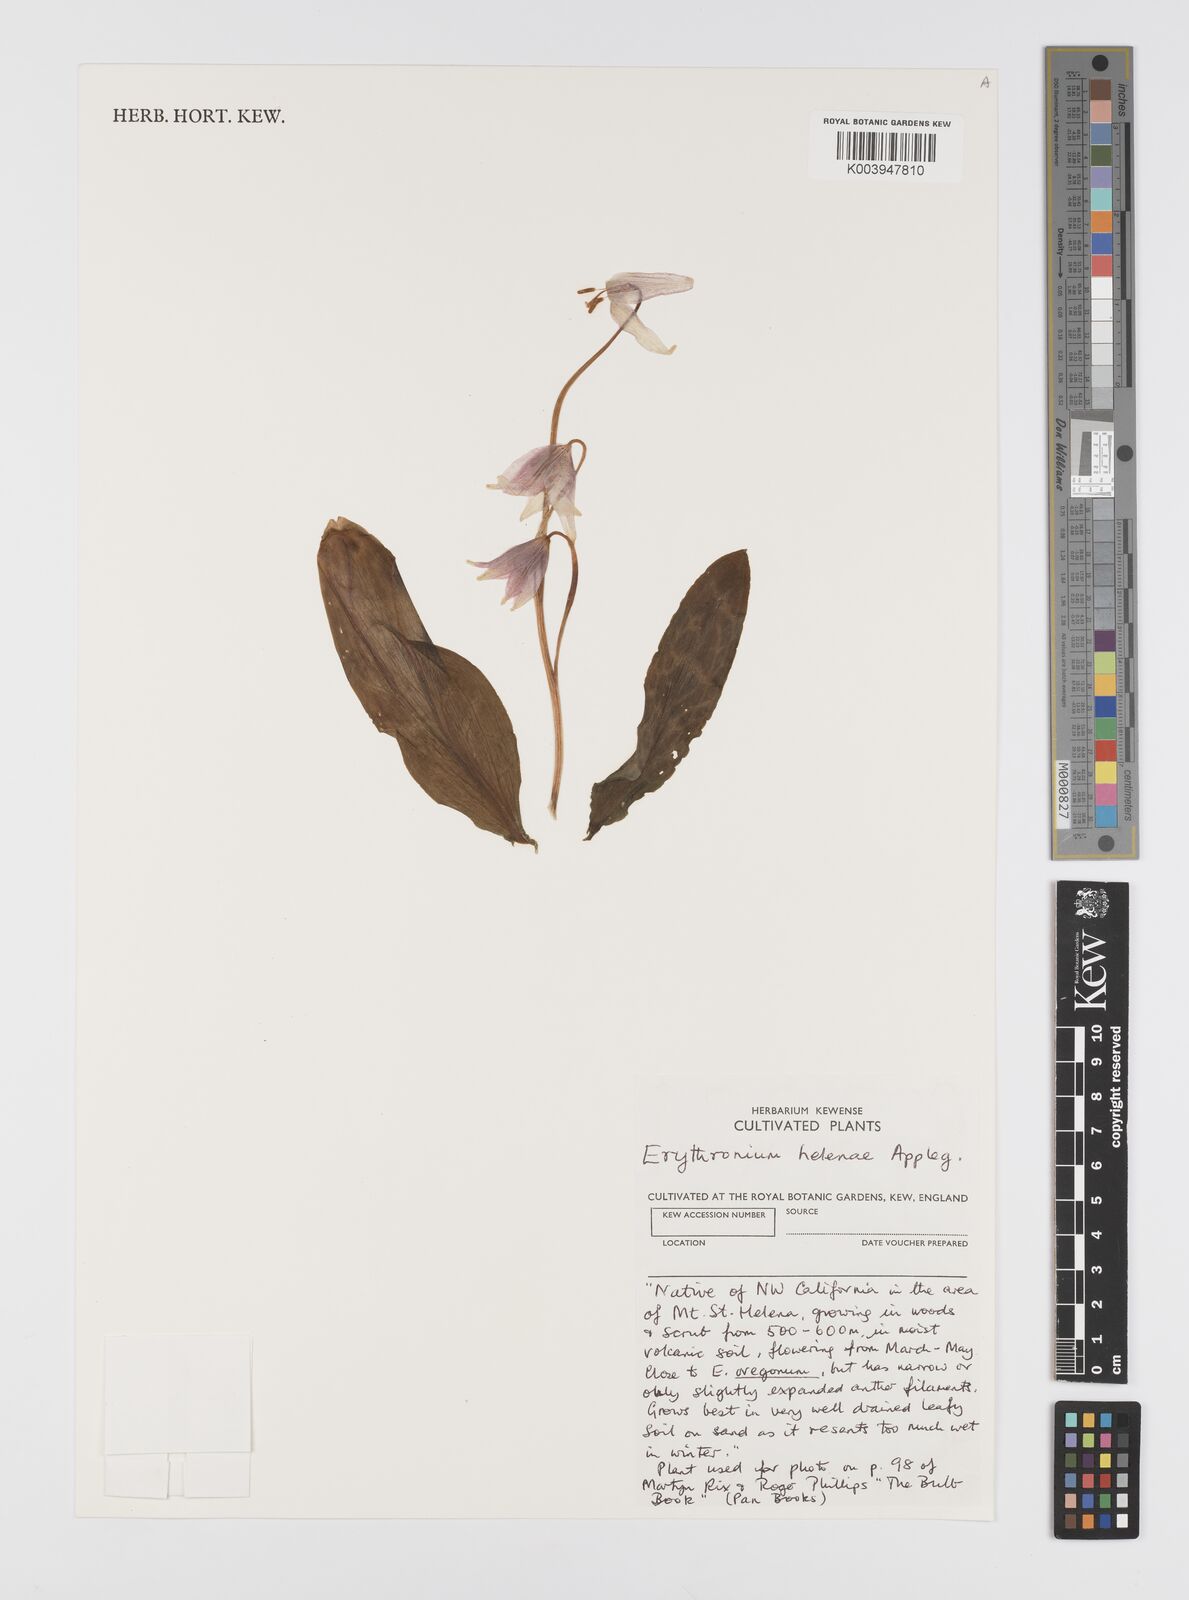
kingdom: Plantae
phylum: Tracheophyta
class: Liliopsida
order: Liliales
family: Liliaceae
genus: Erythronium
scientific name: Erythronium helenae
